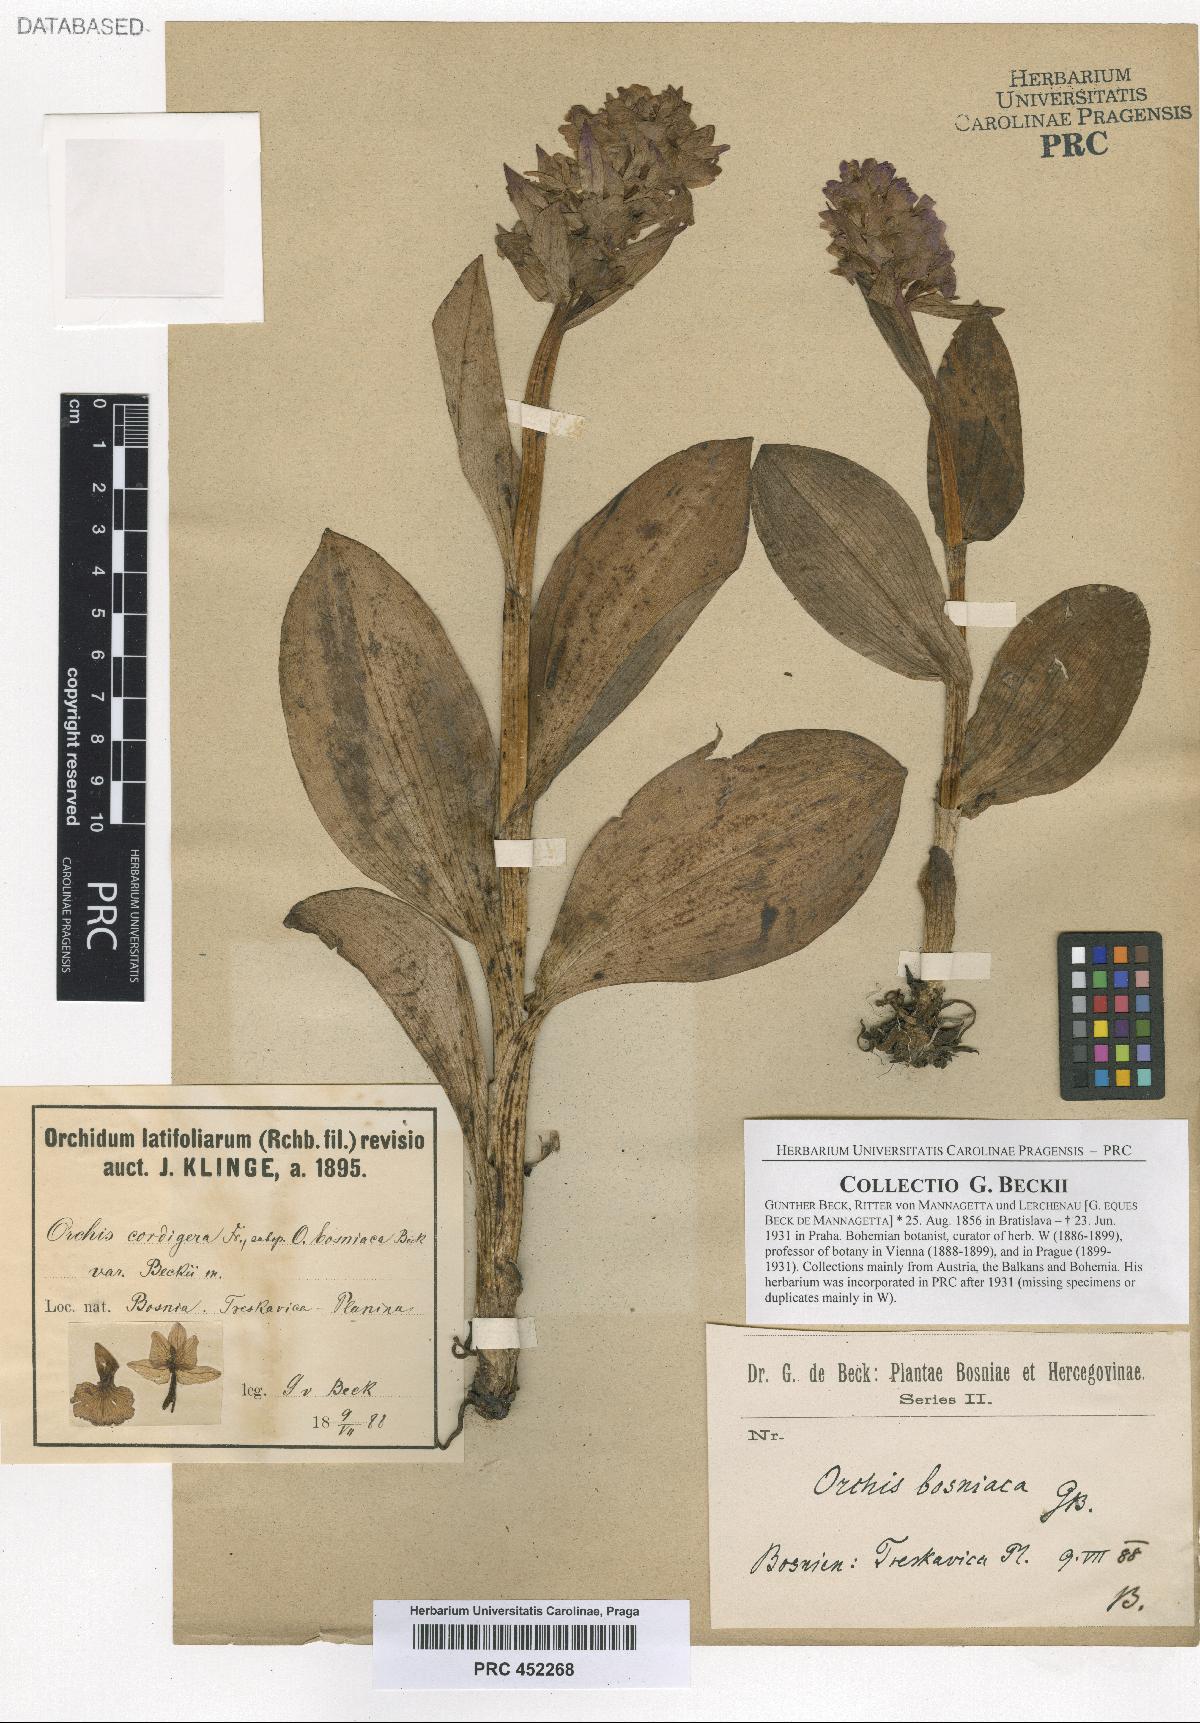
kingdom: Plantae
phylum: Tracheophyta
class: Liliopsida
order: Asparagales
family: Orchidaceae
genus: Dactylorhiza
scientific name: Dactylorhiza majalis
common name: Marsh orchid
